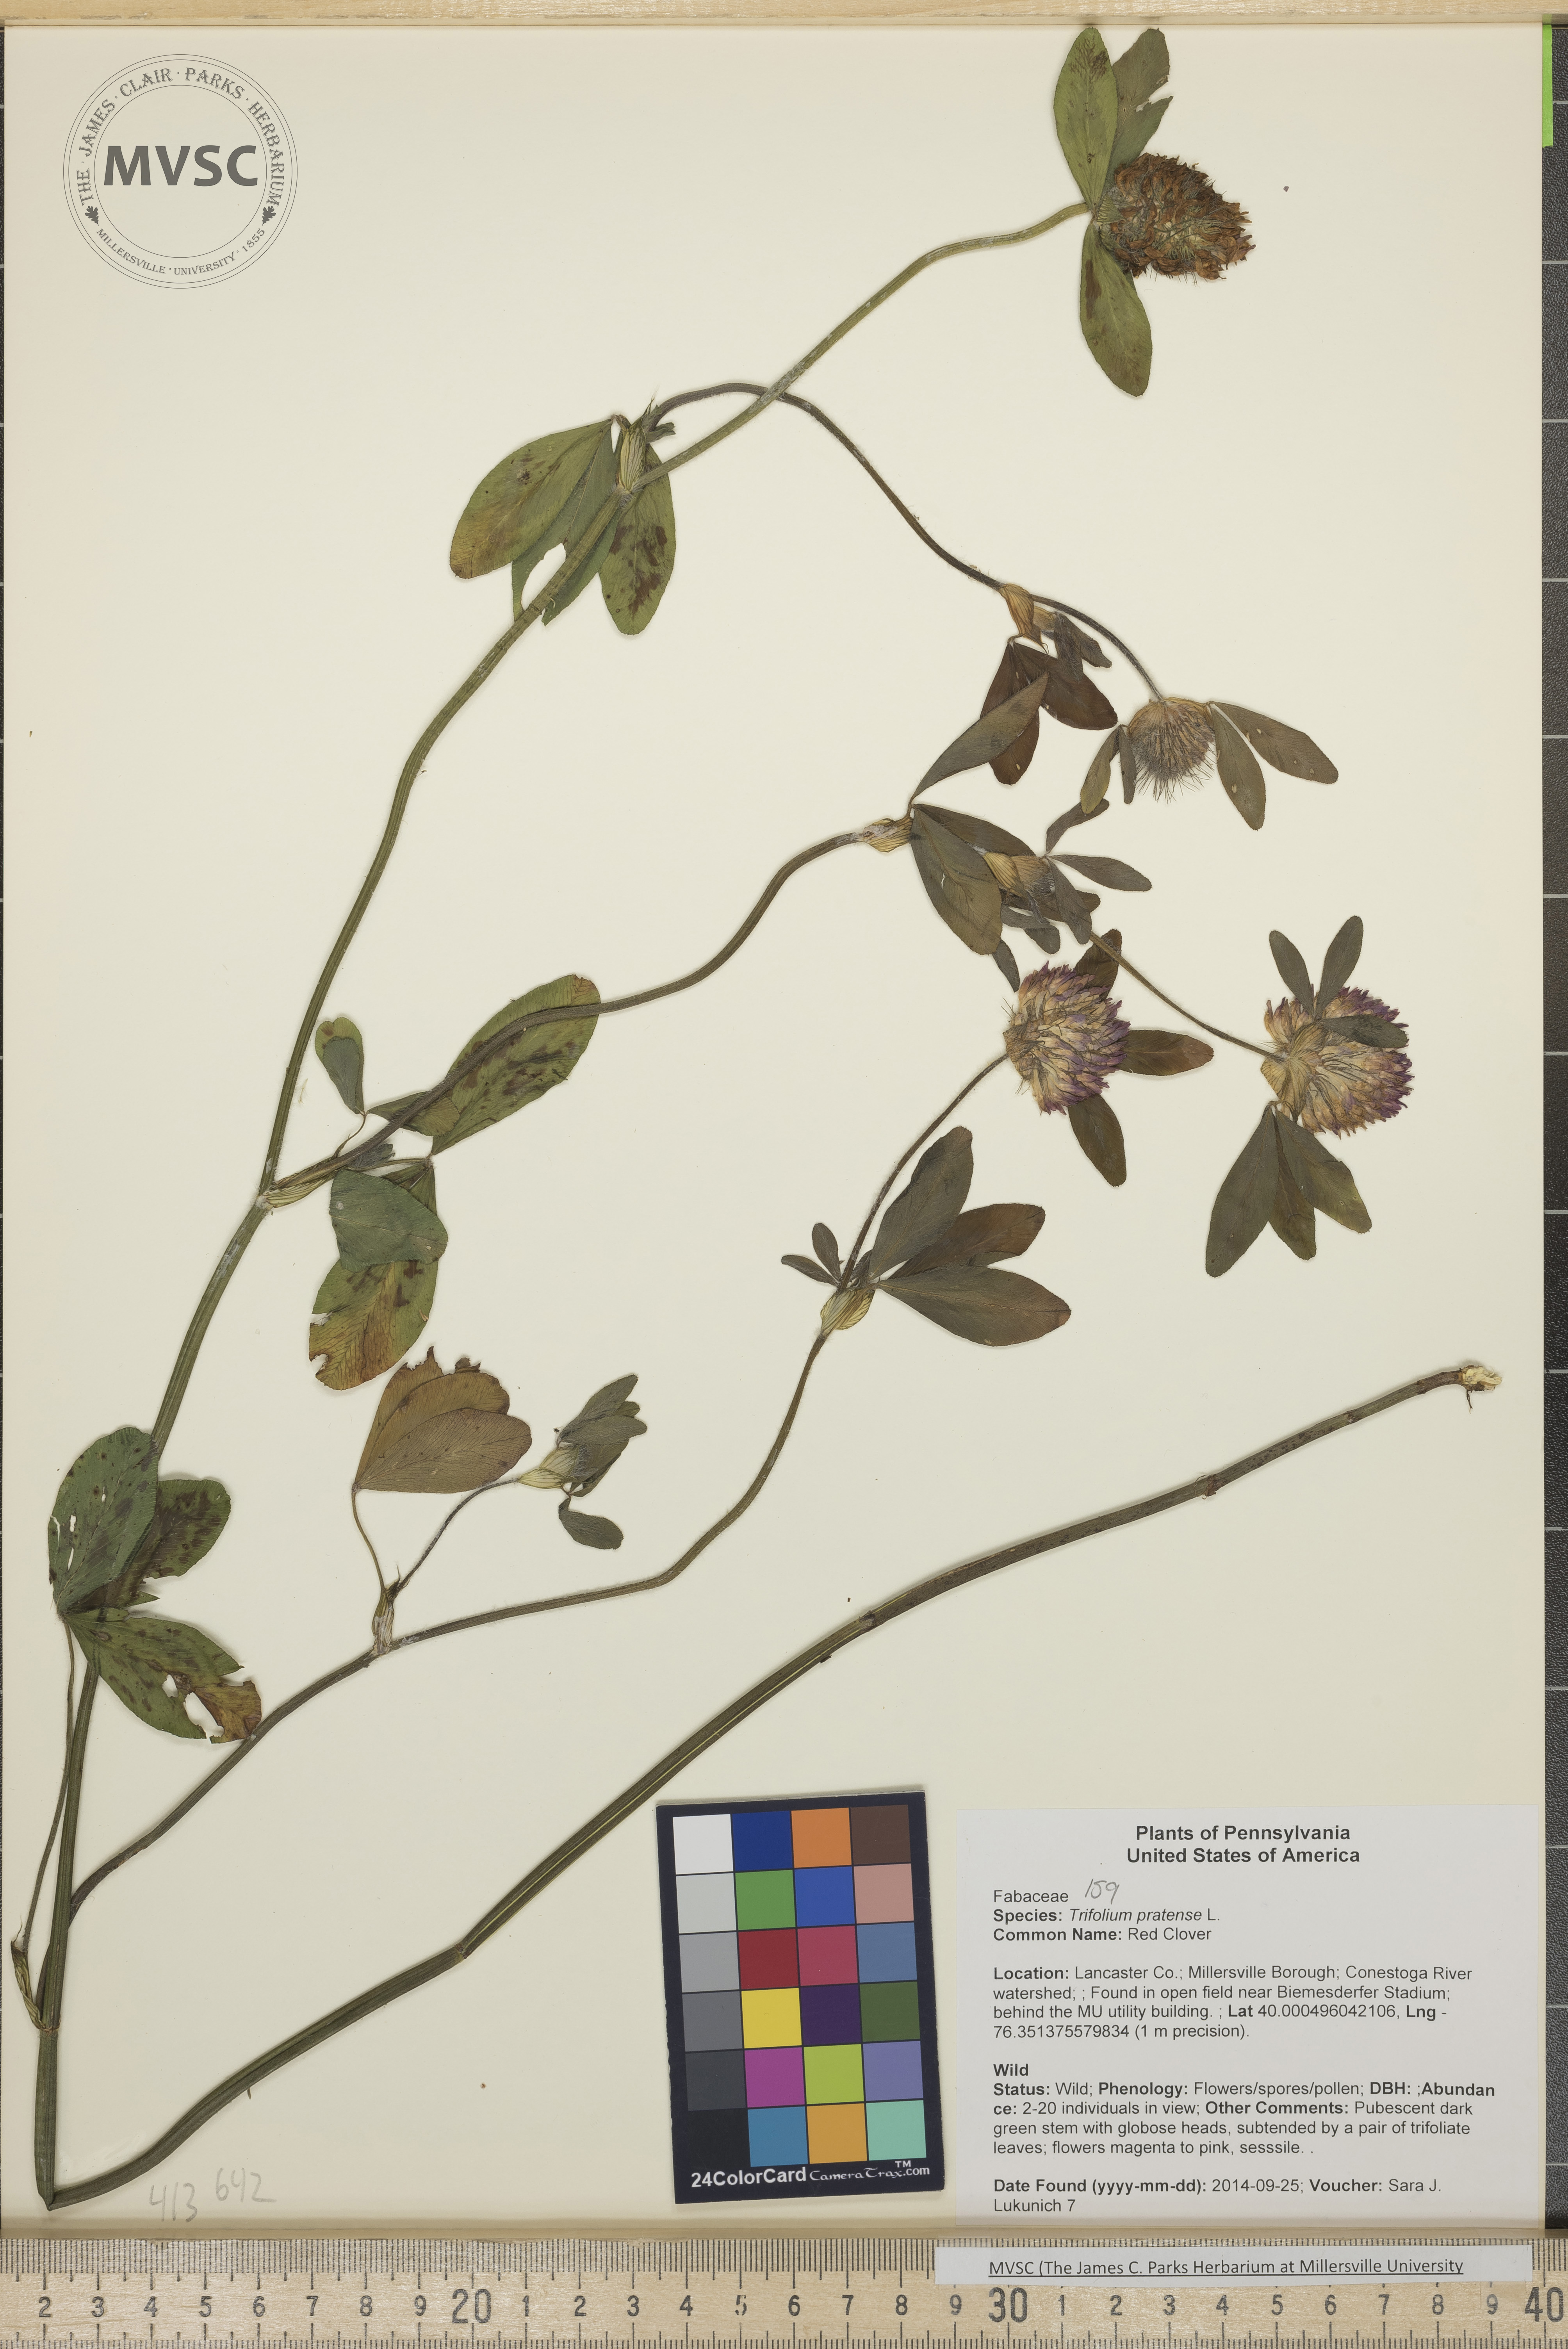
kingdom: Plantae
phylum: Tracheophyta
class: Magnoliopsida
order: Fabales
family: Fabaceae
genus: Trifolium
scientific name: Trifolium pratense
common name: Red Clover
